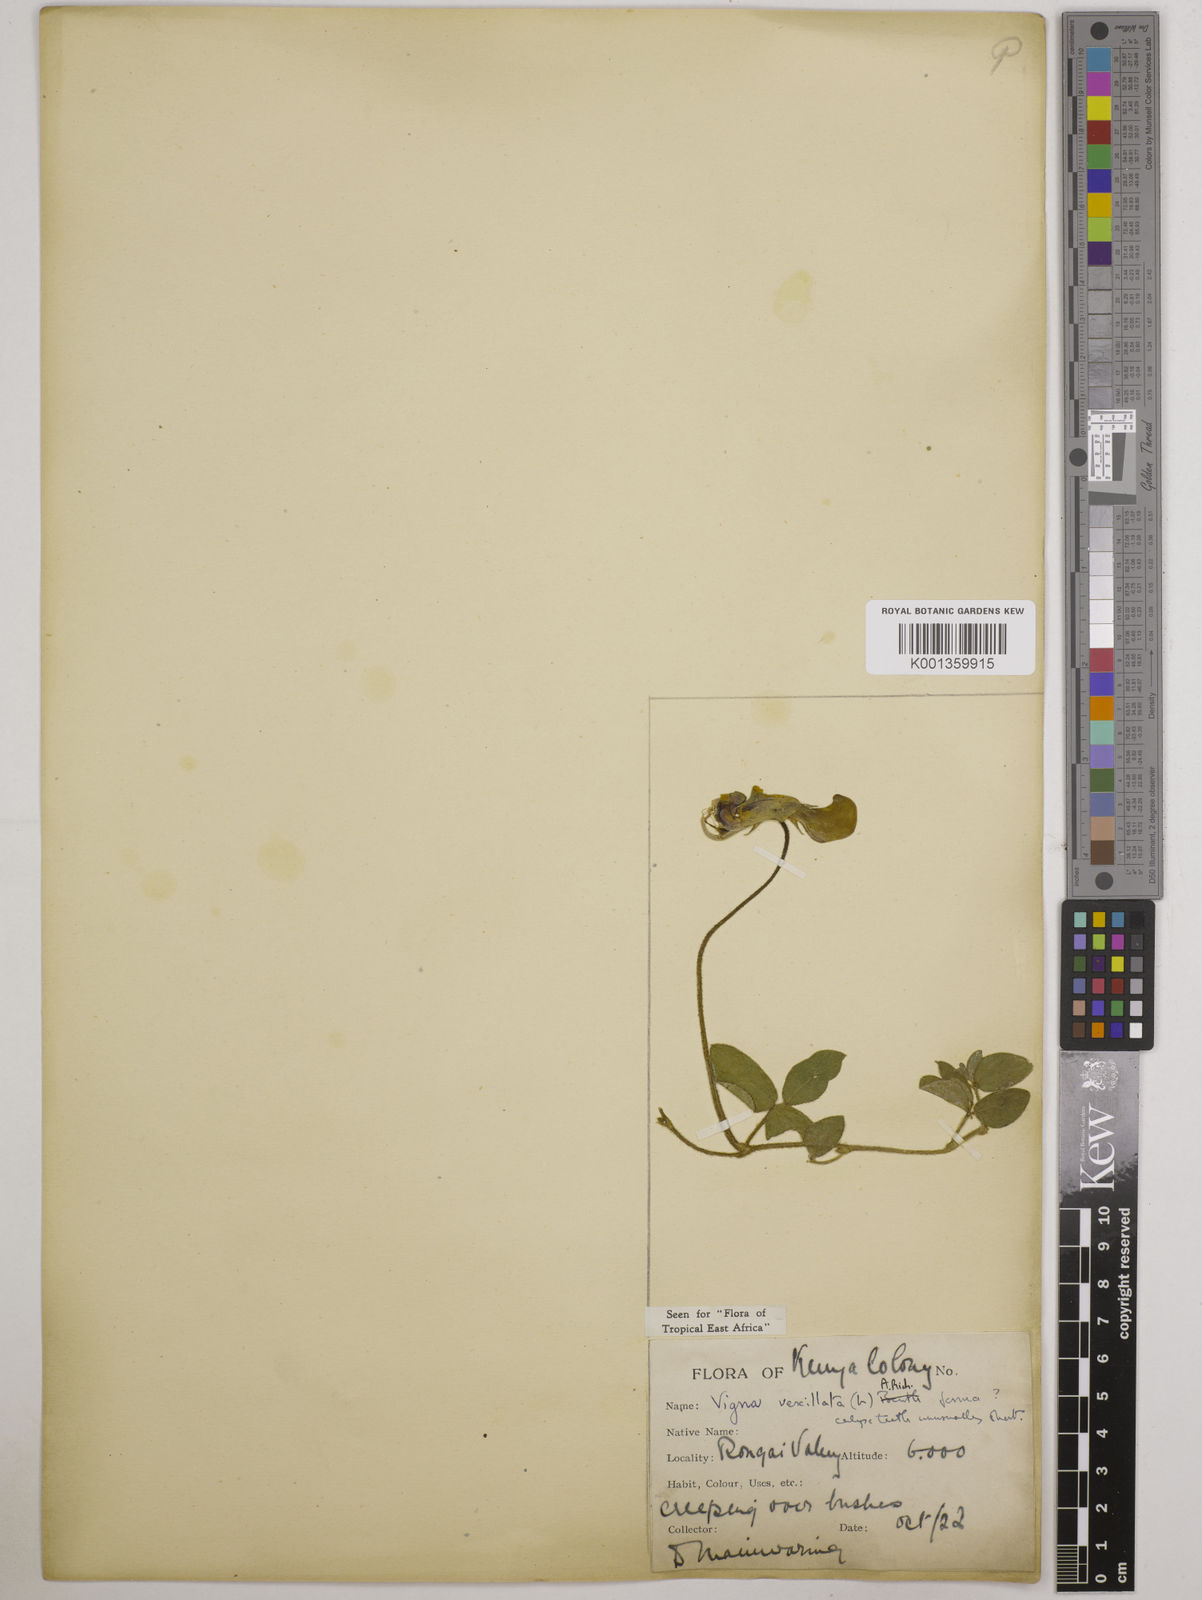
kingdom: Plantae
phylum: Tracheophyta
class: Magnoliopsida
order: Fabales
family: Fabaceae
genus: Vigna
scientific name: Vigna vexillata
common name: Zombi pea
